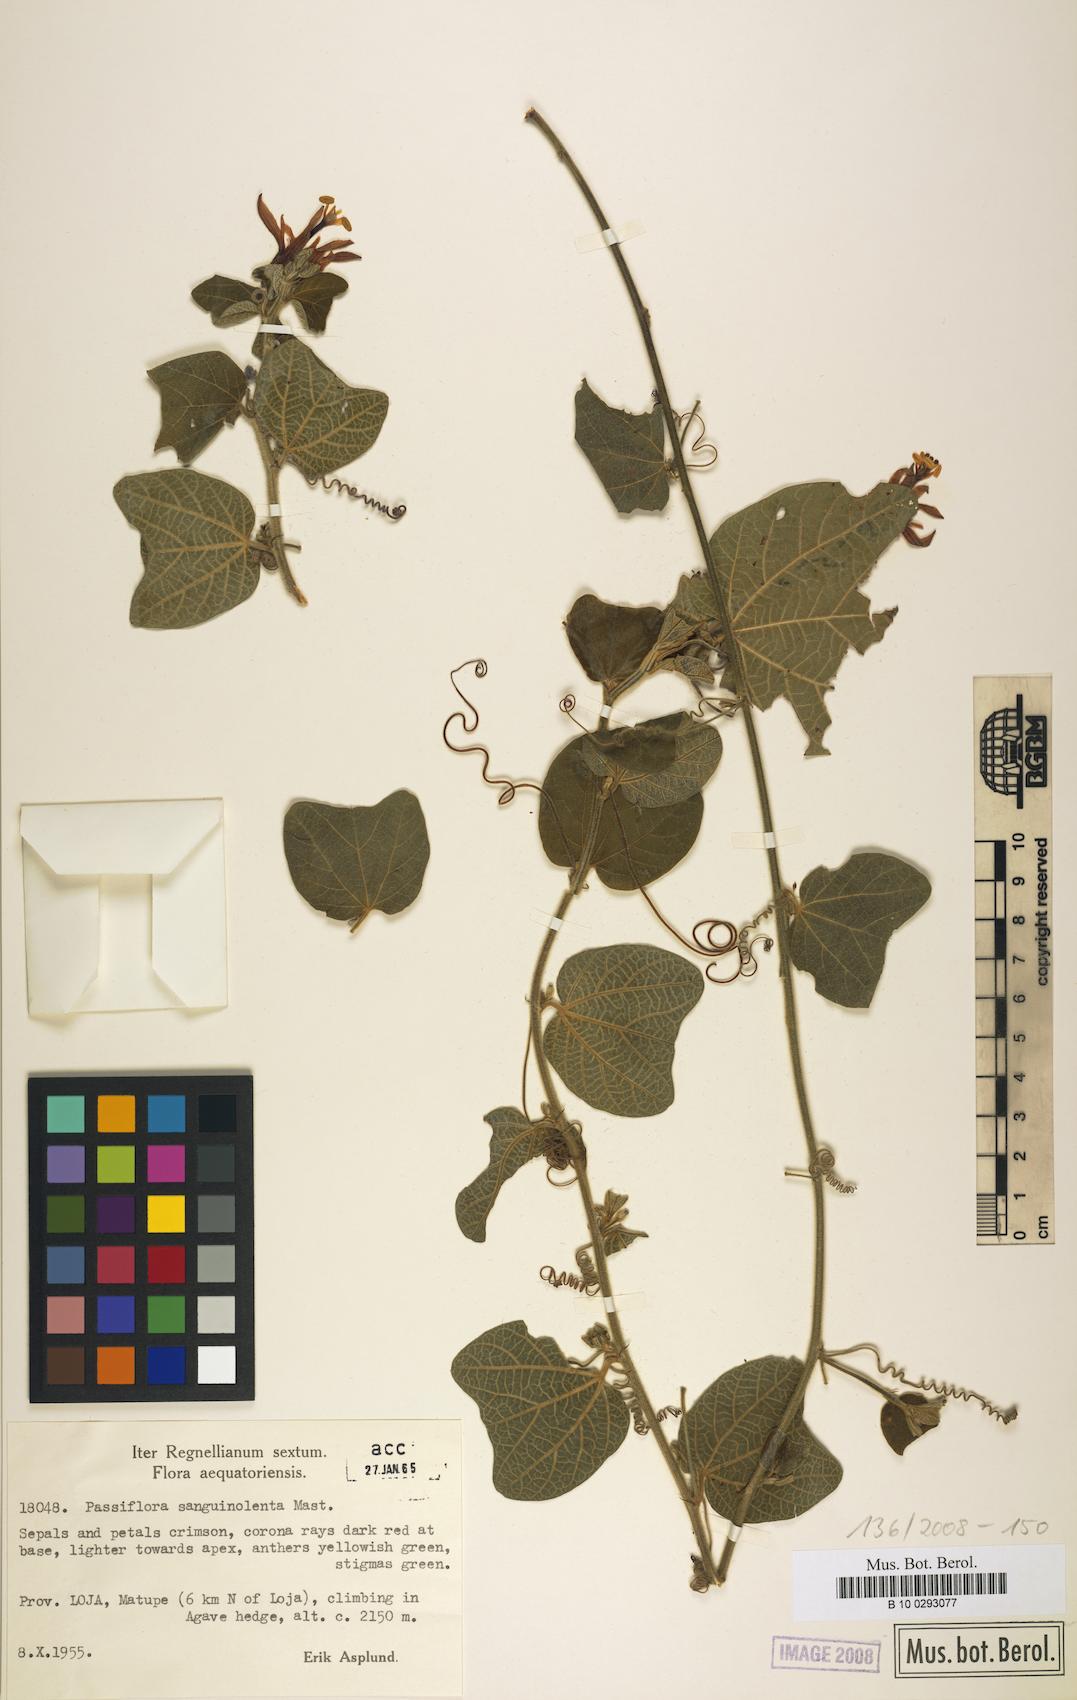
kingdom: Plantae
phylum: Tracheophyta
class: Magnoliopsida
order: Malpighiales
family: Passifloraceae
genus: Passiflora
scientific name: Passiflora sanguinolenta
